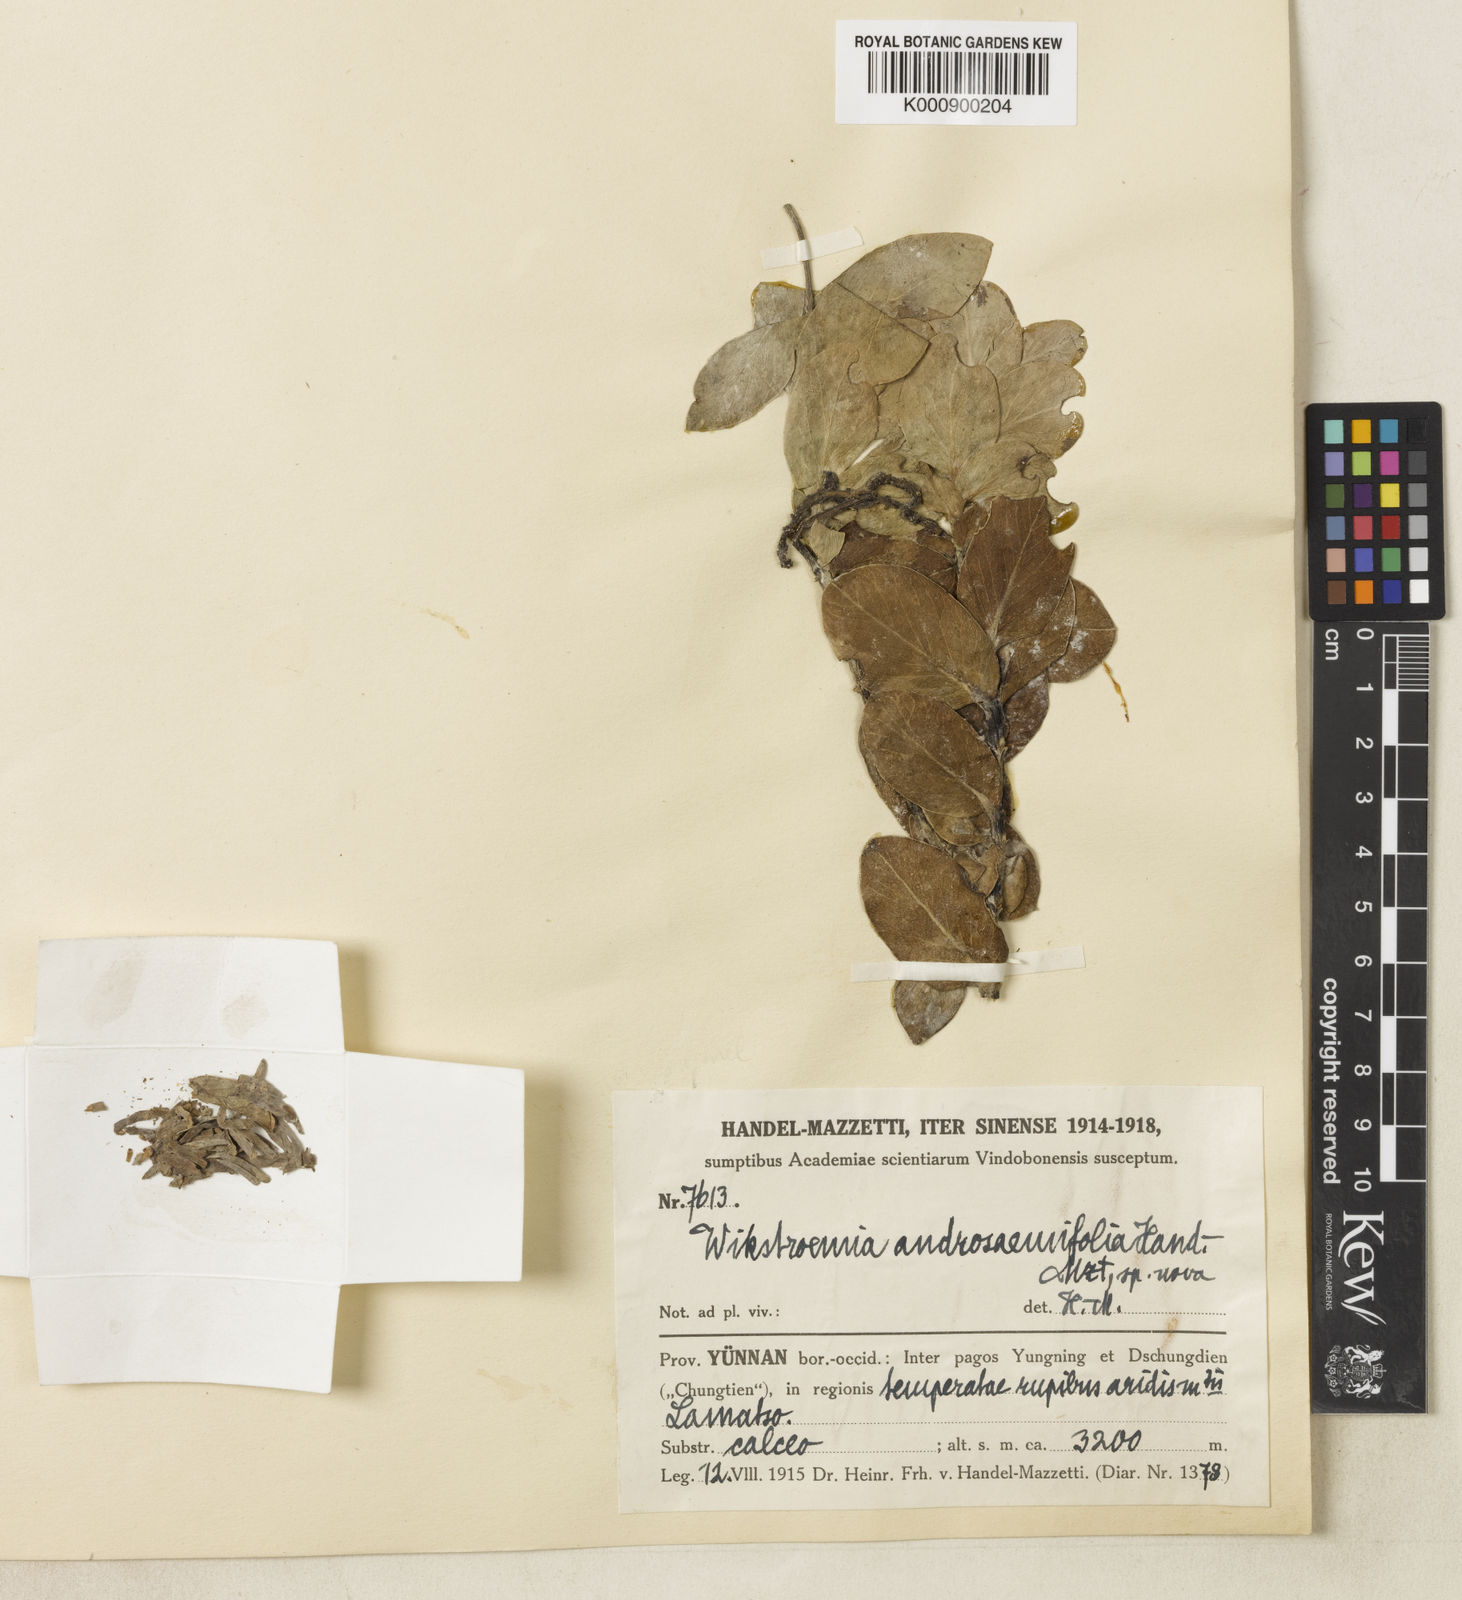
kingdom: Plantae
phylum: Tracheophyta
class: Magnoliopsida
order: Malvales
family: Thymelaeaceae
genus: Wikstroemia
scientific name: Wikstroemia lamatsoensis
